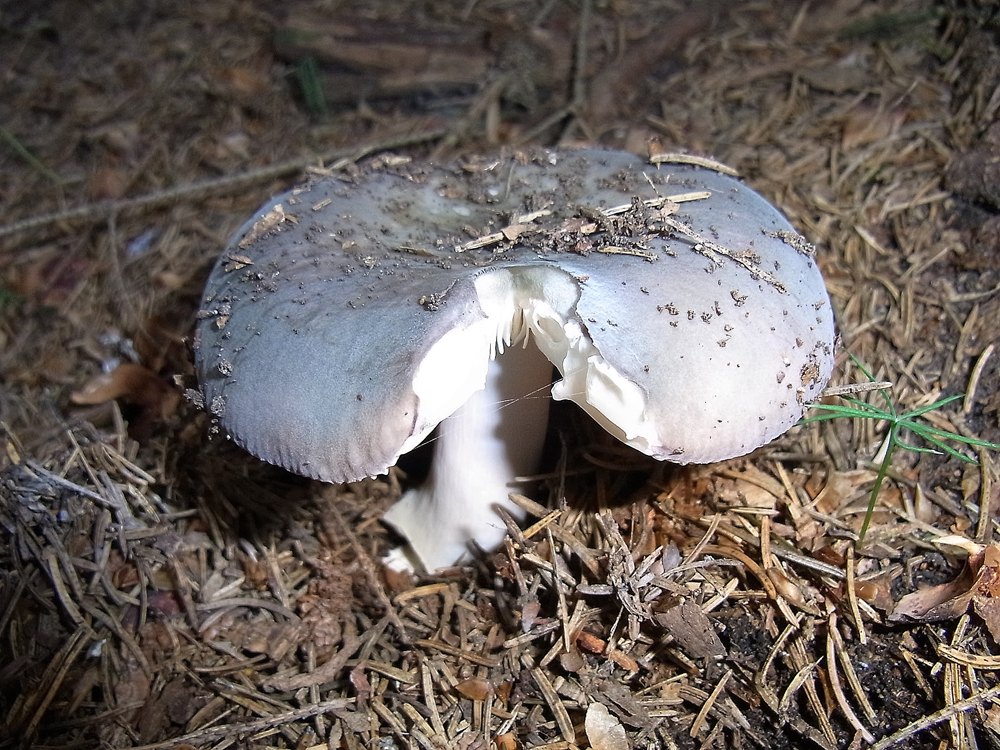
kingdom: Fungi
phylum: Basidiomycota
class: Agaricomycetes
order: Russulales
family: Russulaceae
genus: Russula
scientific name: Russula cyanoxantha
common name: Charcoal burner
